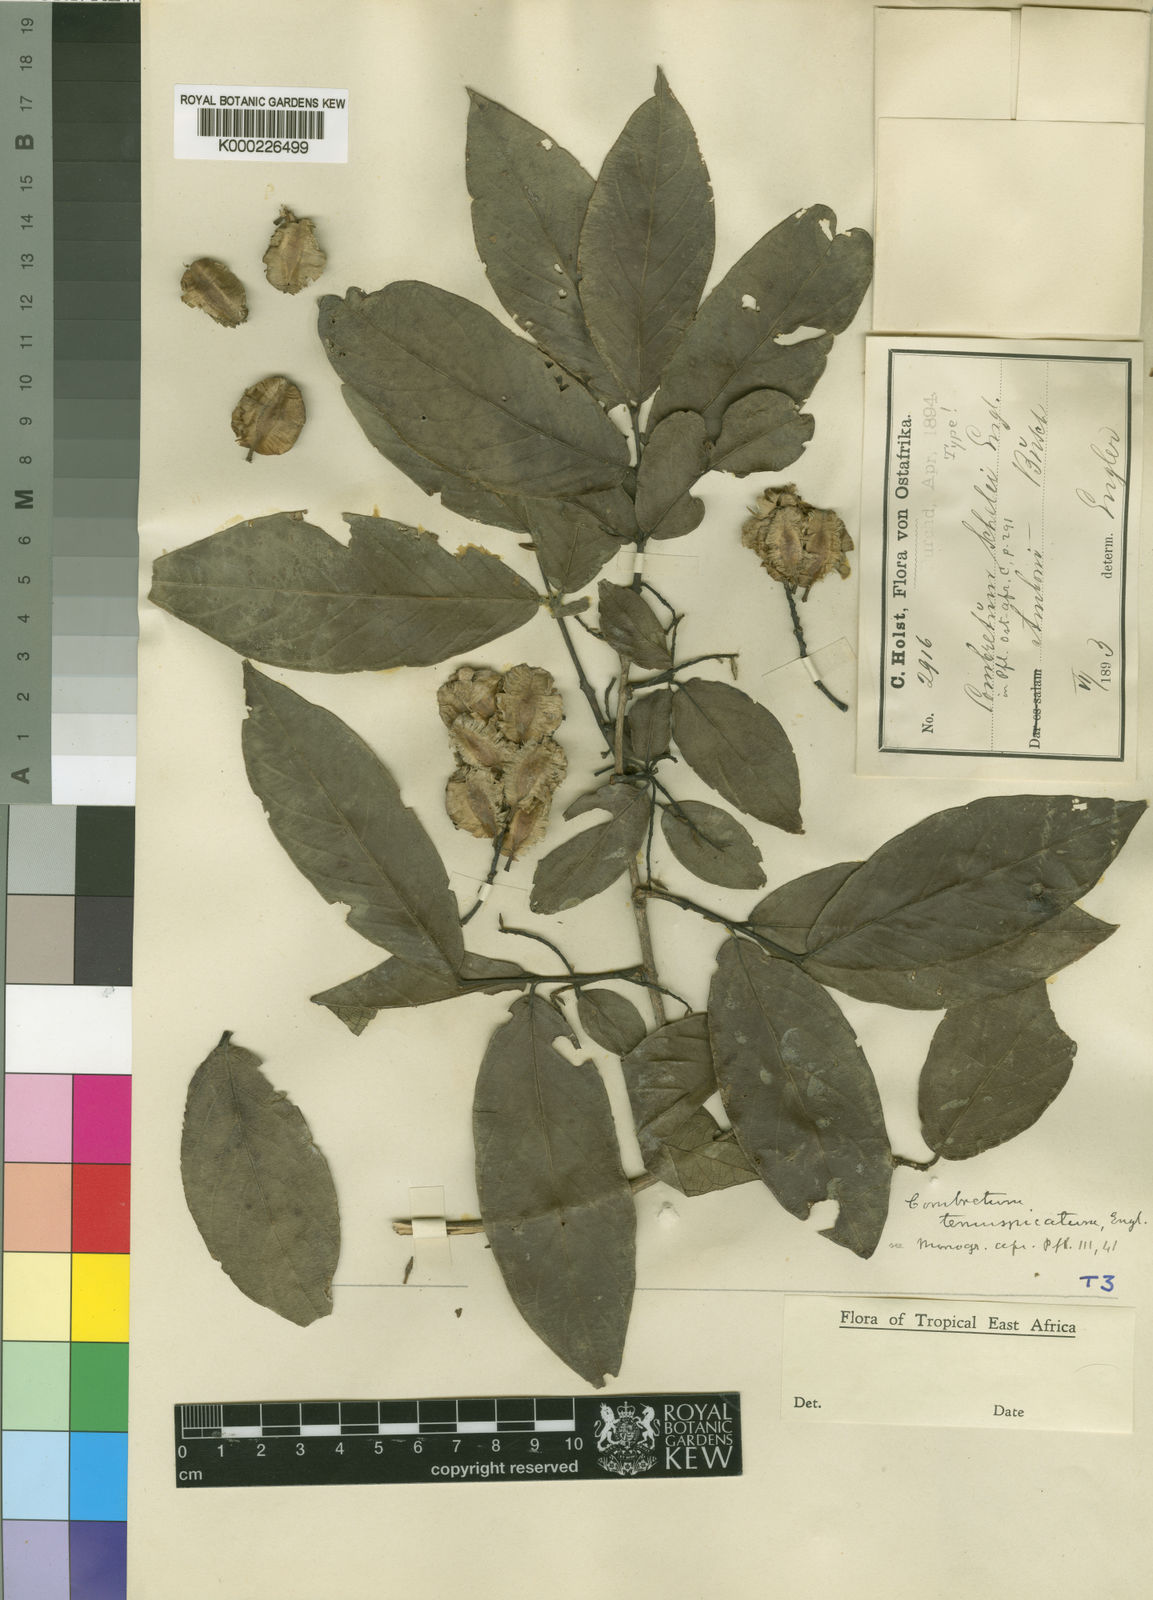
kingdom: Plantae
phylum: Tracheophyta
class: Magnoliopsida
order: Myrtales
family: Combretaceae
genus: Combretum
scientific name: Combretum molle
